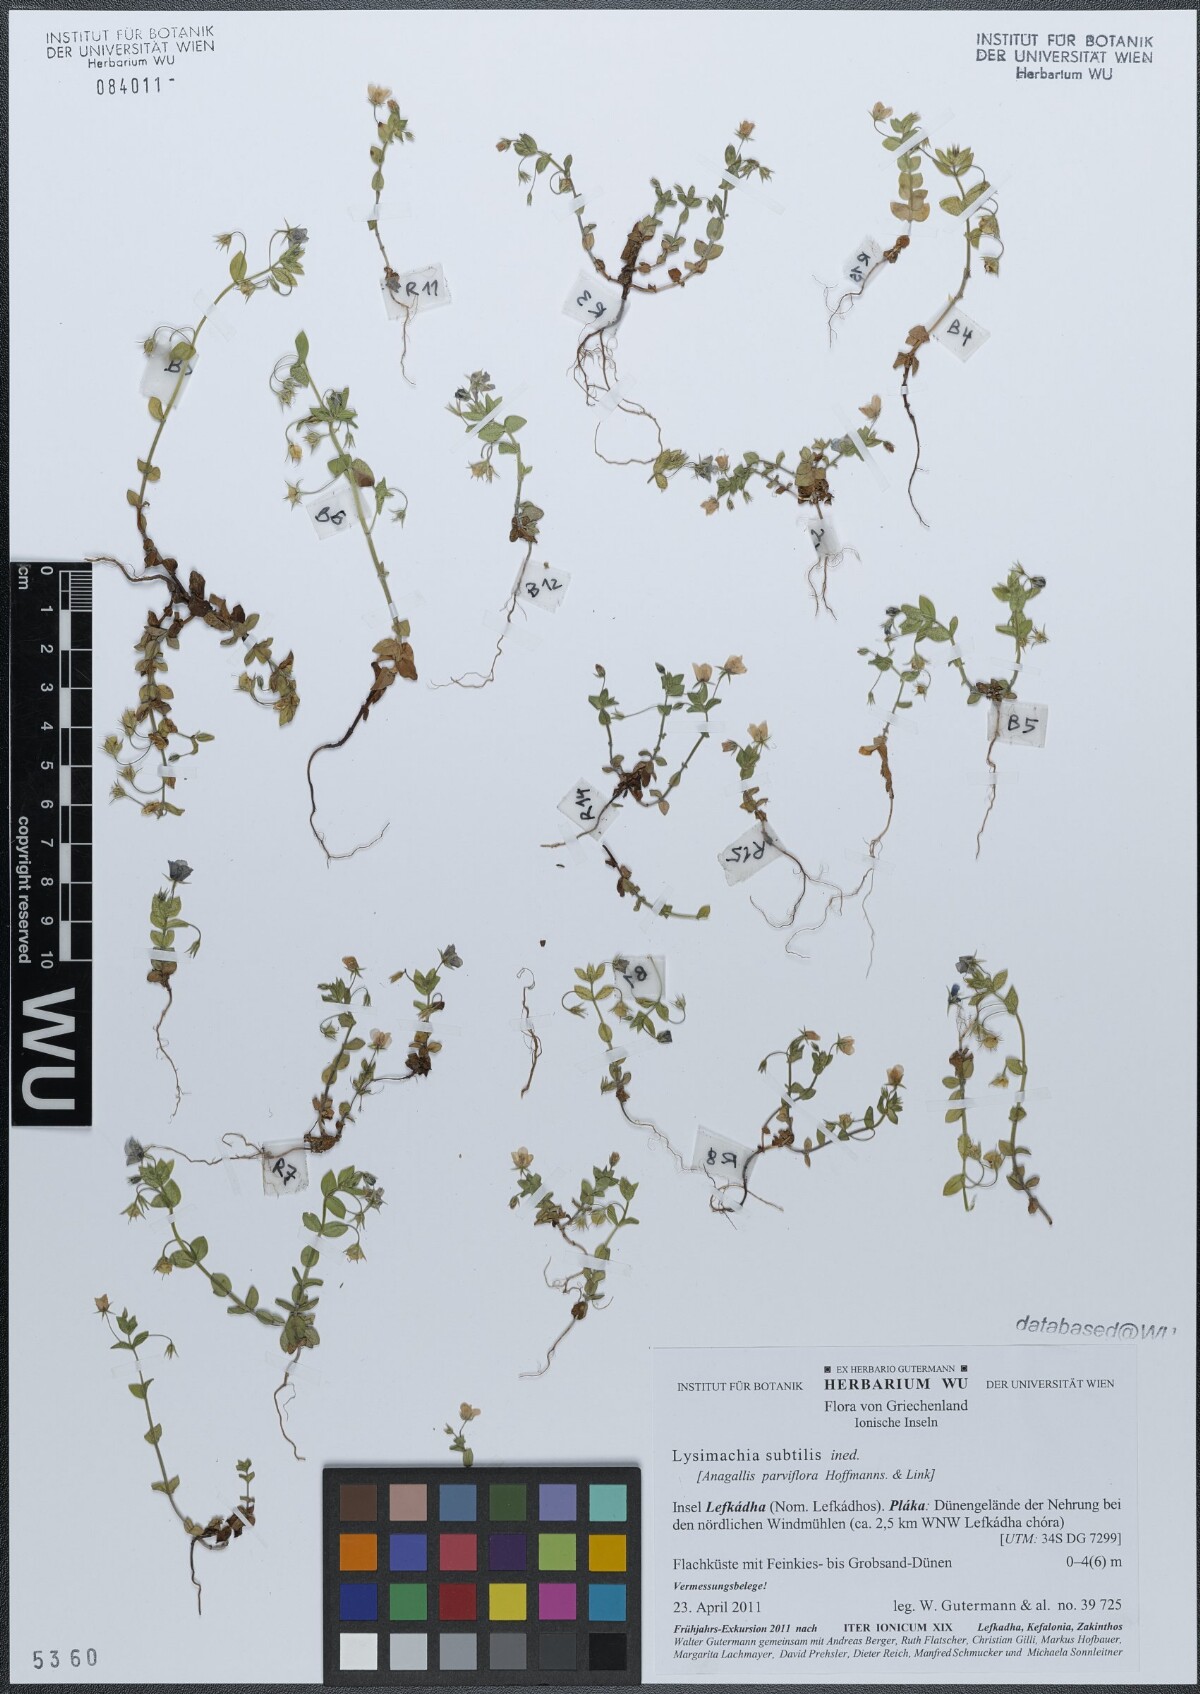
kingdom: Plantae
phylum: Tracheophyta
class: Magnoliopsida
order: Ericales
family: Primulaceae
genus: Lysimachia
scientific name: Lysimachia talaverae
